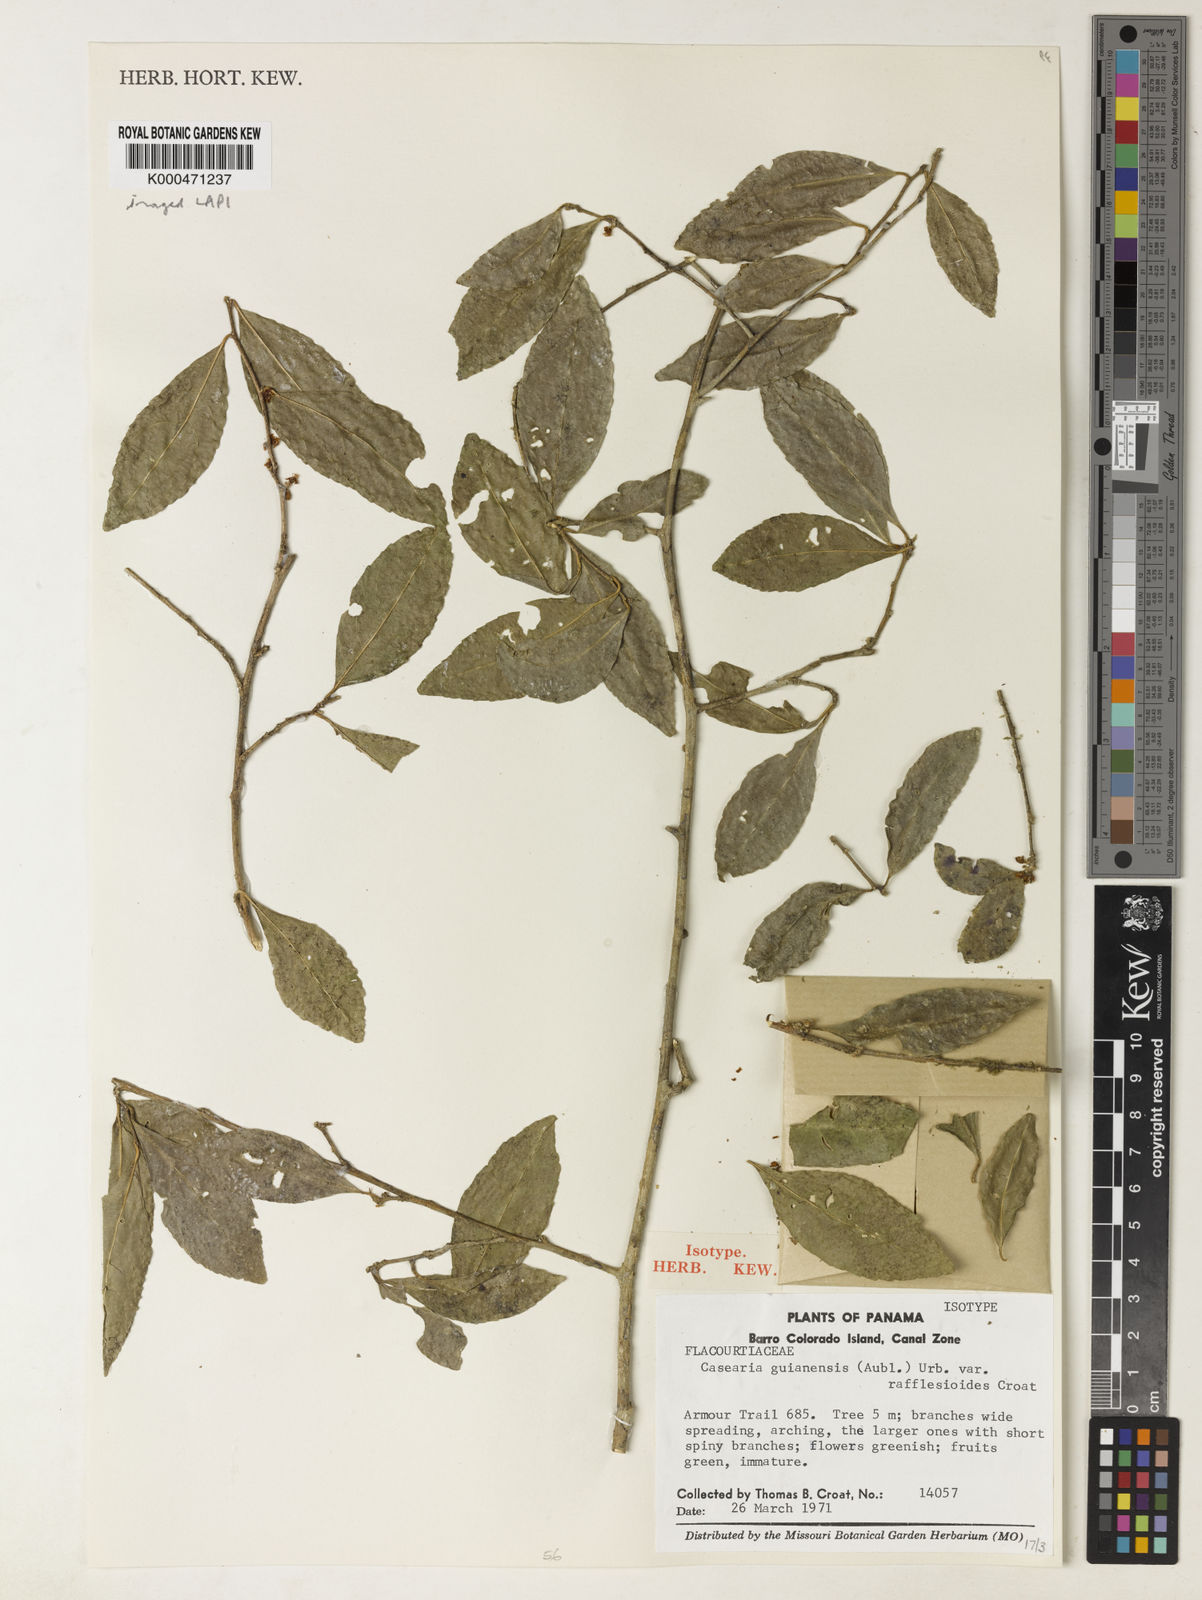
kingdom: Plantae
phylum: Tracheophyta
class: Magnoliopsida
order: Malpighiales
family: Salicaceae
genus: Casearia
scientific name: Casearia aculeata
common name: Cockspur
